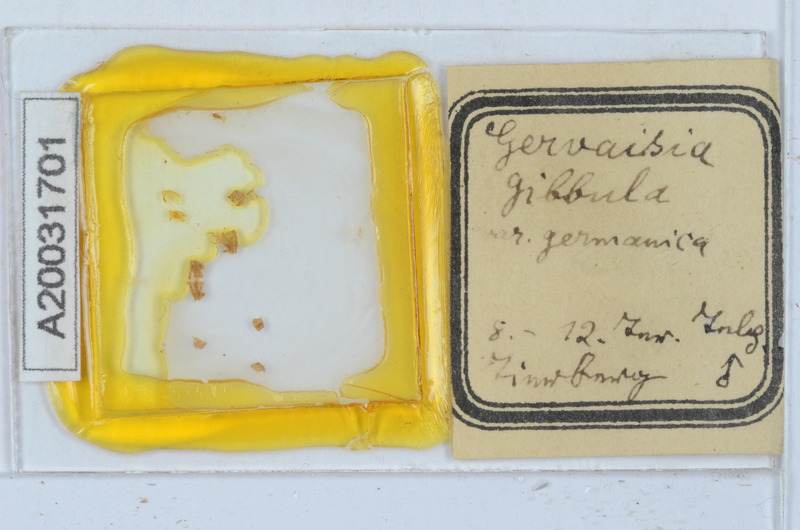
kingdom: Animalia
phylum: Arthropoda
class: Diplopoda
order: Glomerida
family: Glomeridae
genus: Trachysphaera
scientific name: Trachysphaera gibbula
